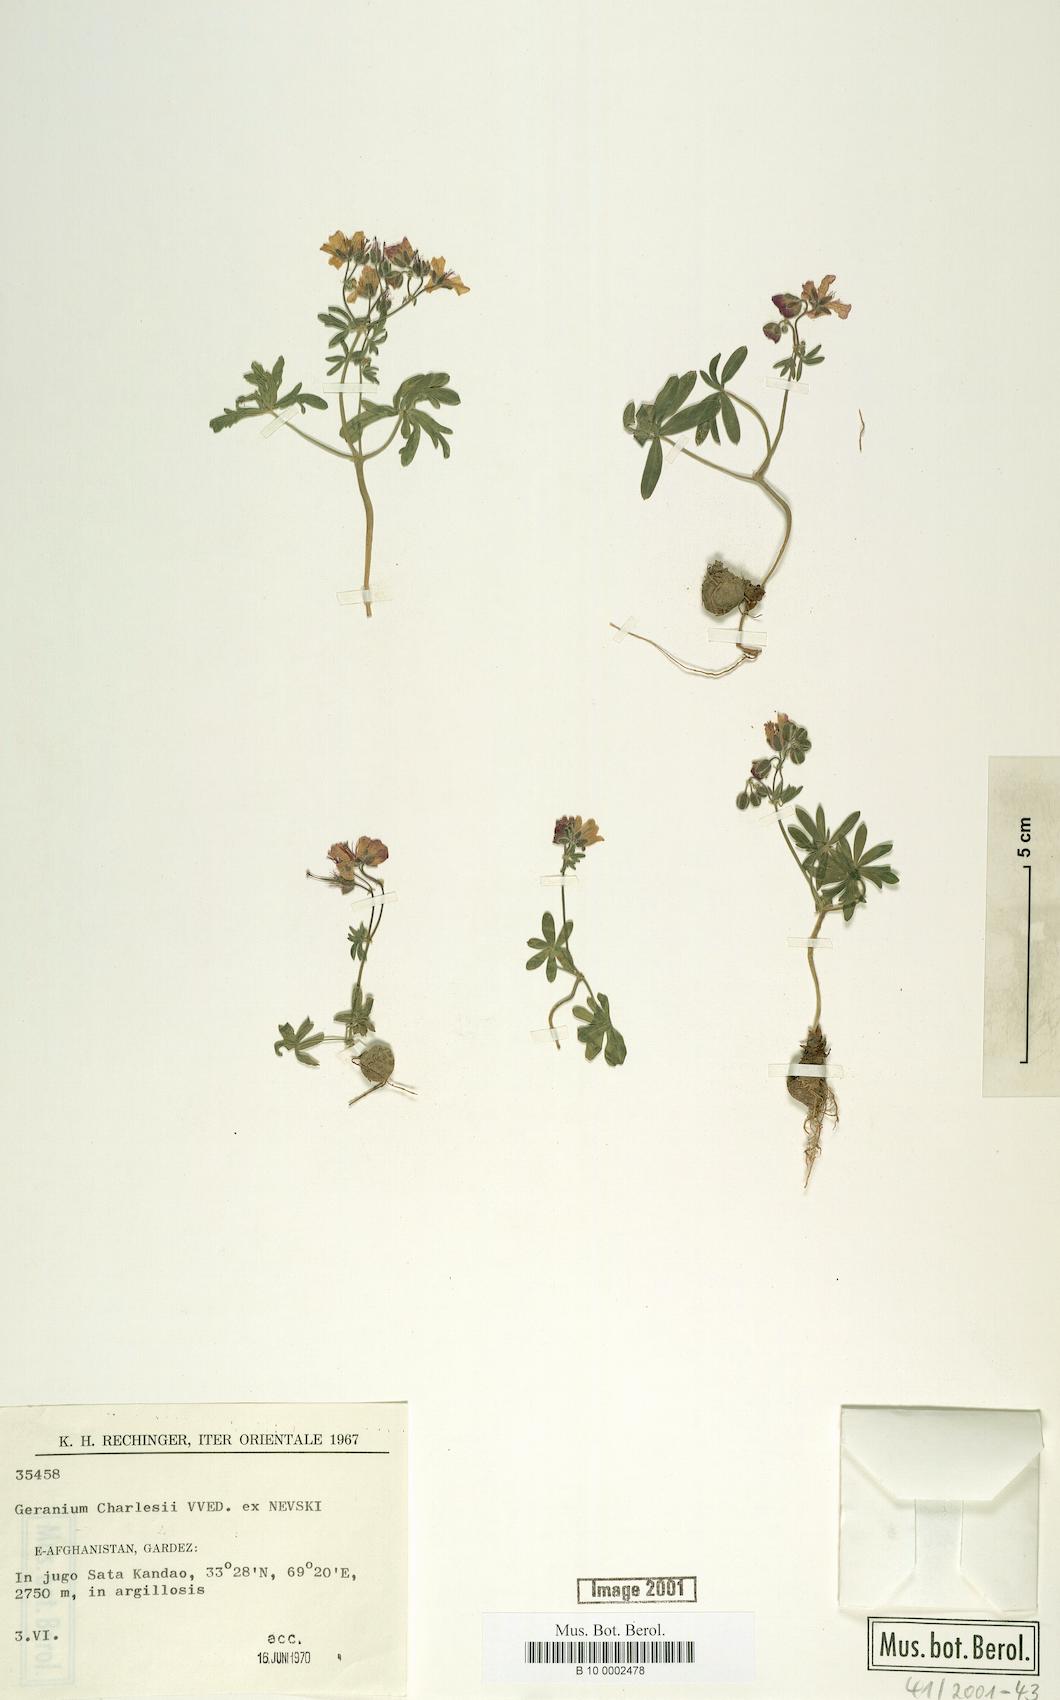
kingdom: Plantae
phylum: Tracheophyta
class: Magnoliopsida
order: Geraniales
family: Geraniaceae
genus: Geranium
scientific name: Geranium kotschyi
